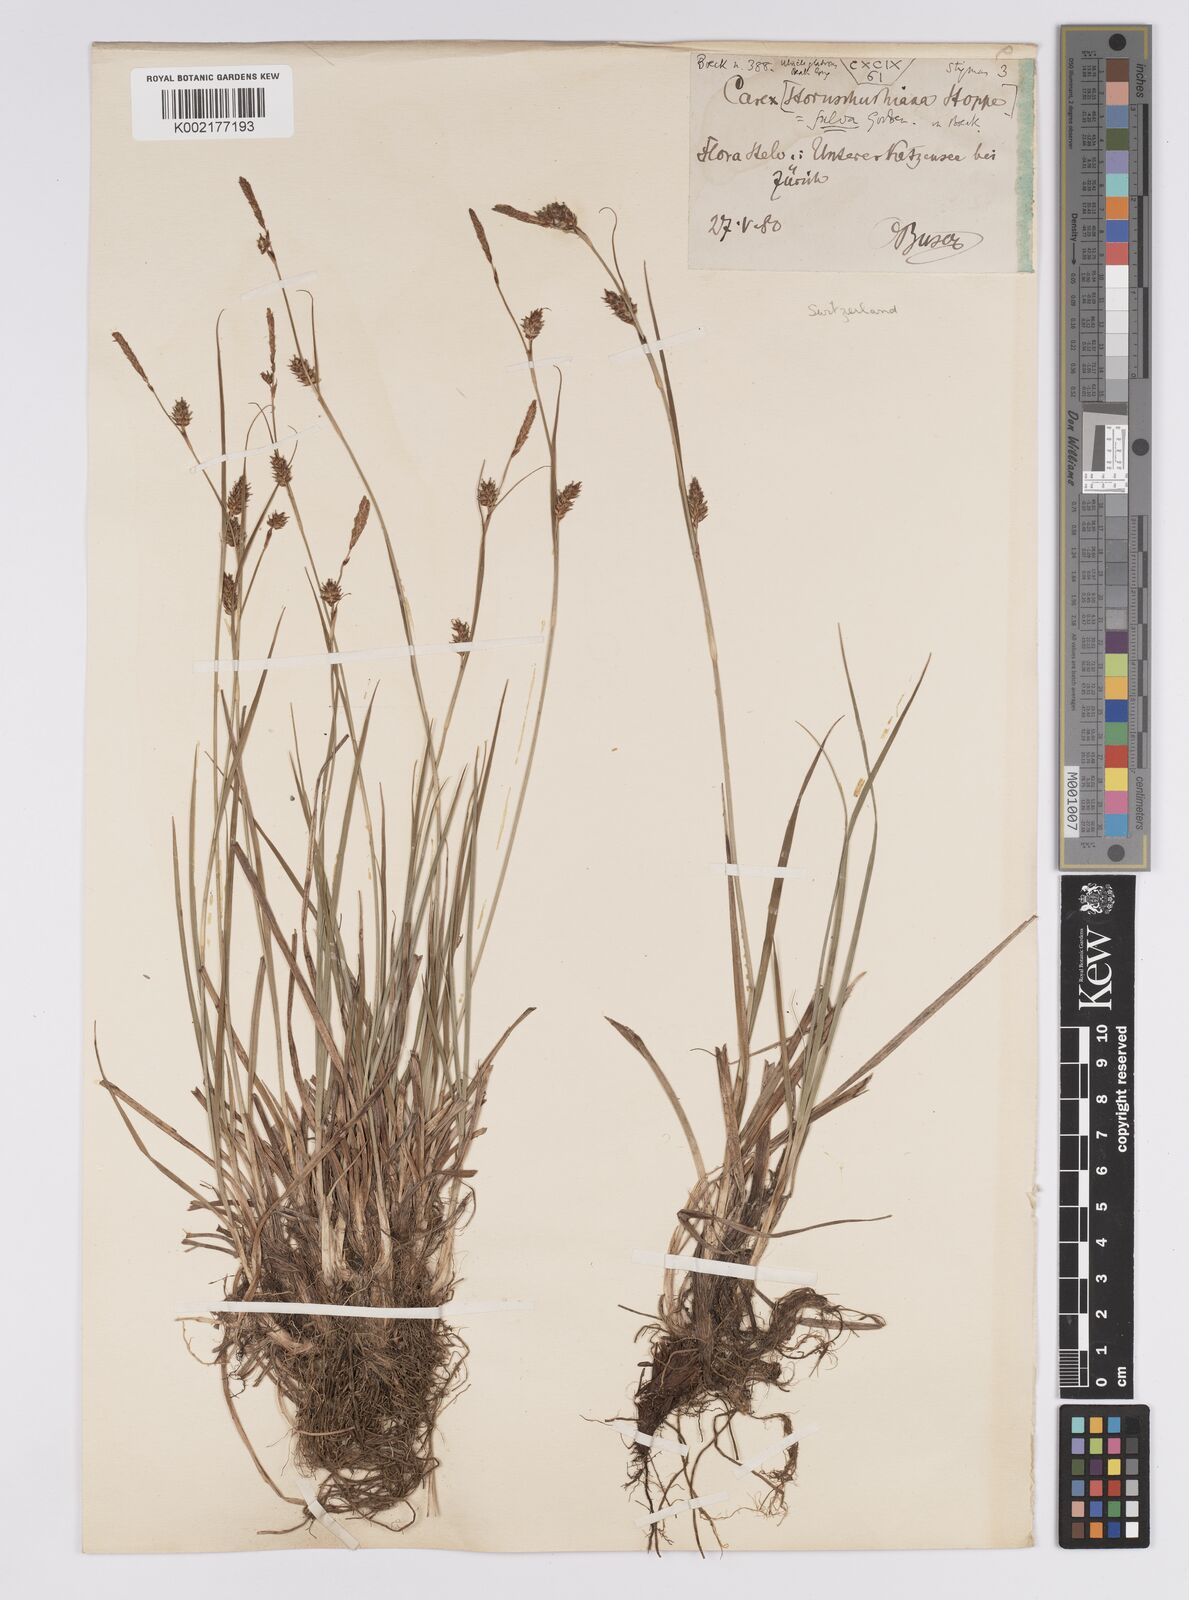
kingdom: Plantae
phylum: Tracheophyta
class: Liliopsida
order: Poales
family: Cyperaceae
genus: Carex
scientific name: Carex hostiana
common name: Tawny sedge
